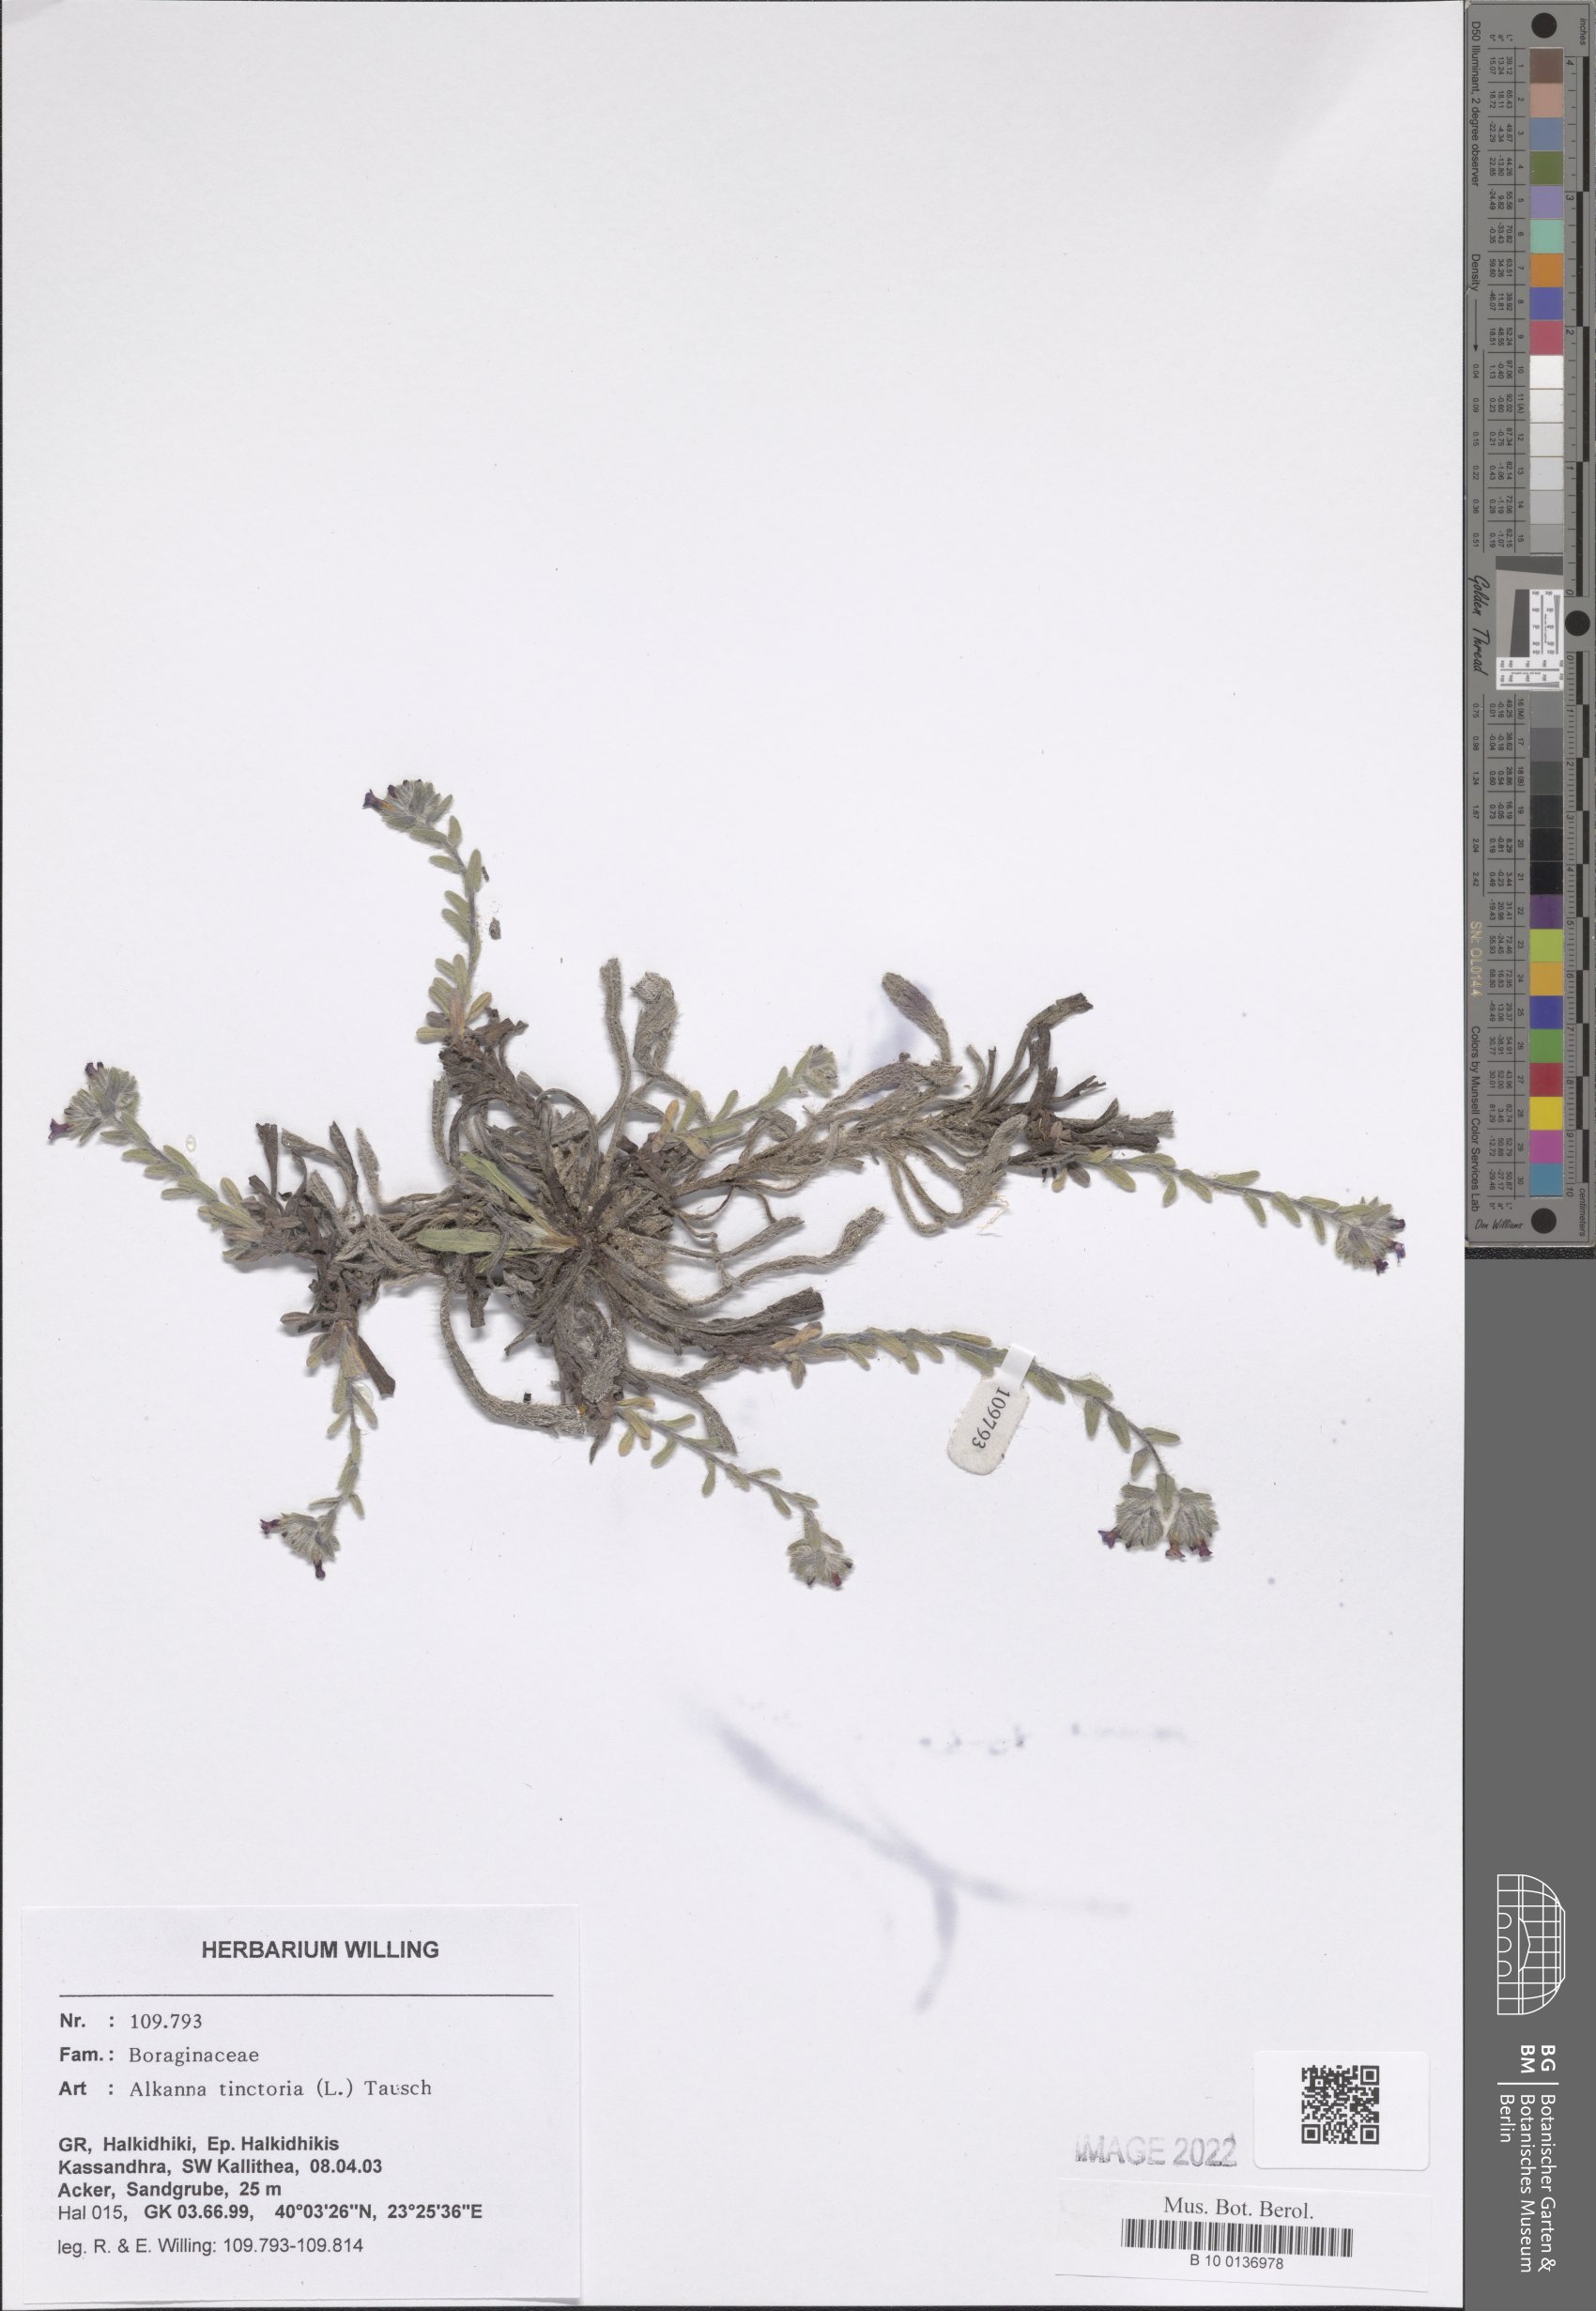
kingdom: Plantae
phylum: Tracheophyta
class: Magnoliopsida
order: Boraginales
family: Boraginaceae
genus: Alkanna
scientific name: Alkanna tinctoria
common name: Dyer's-alkanet
